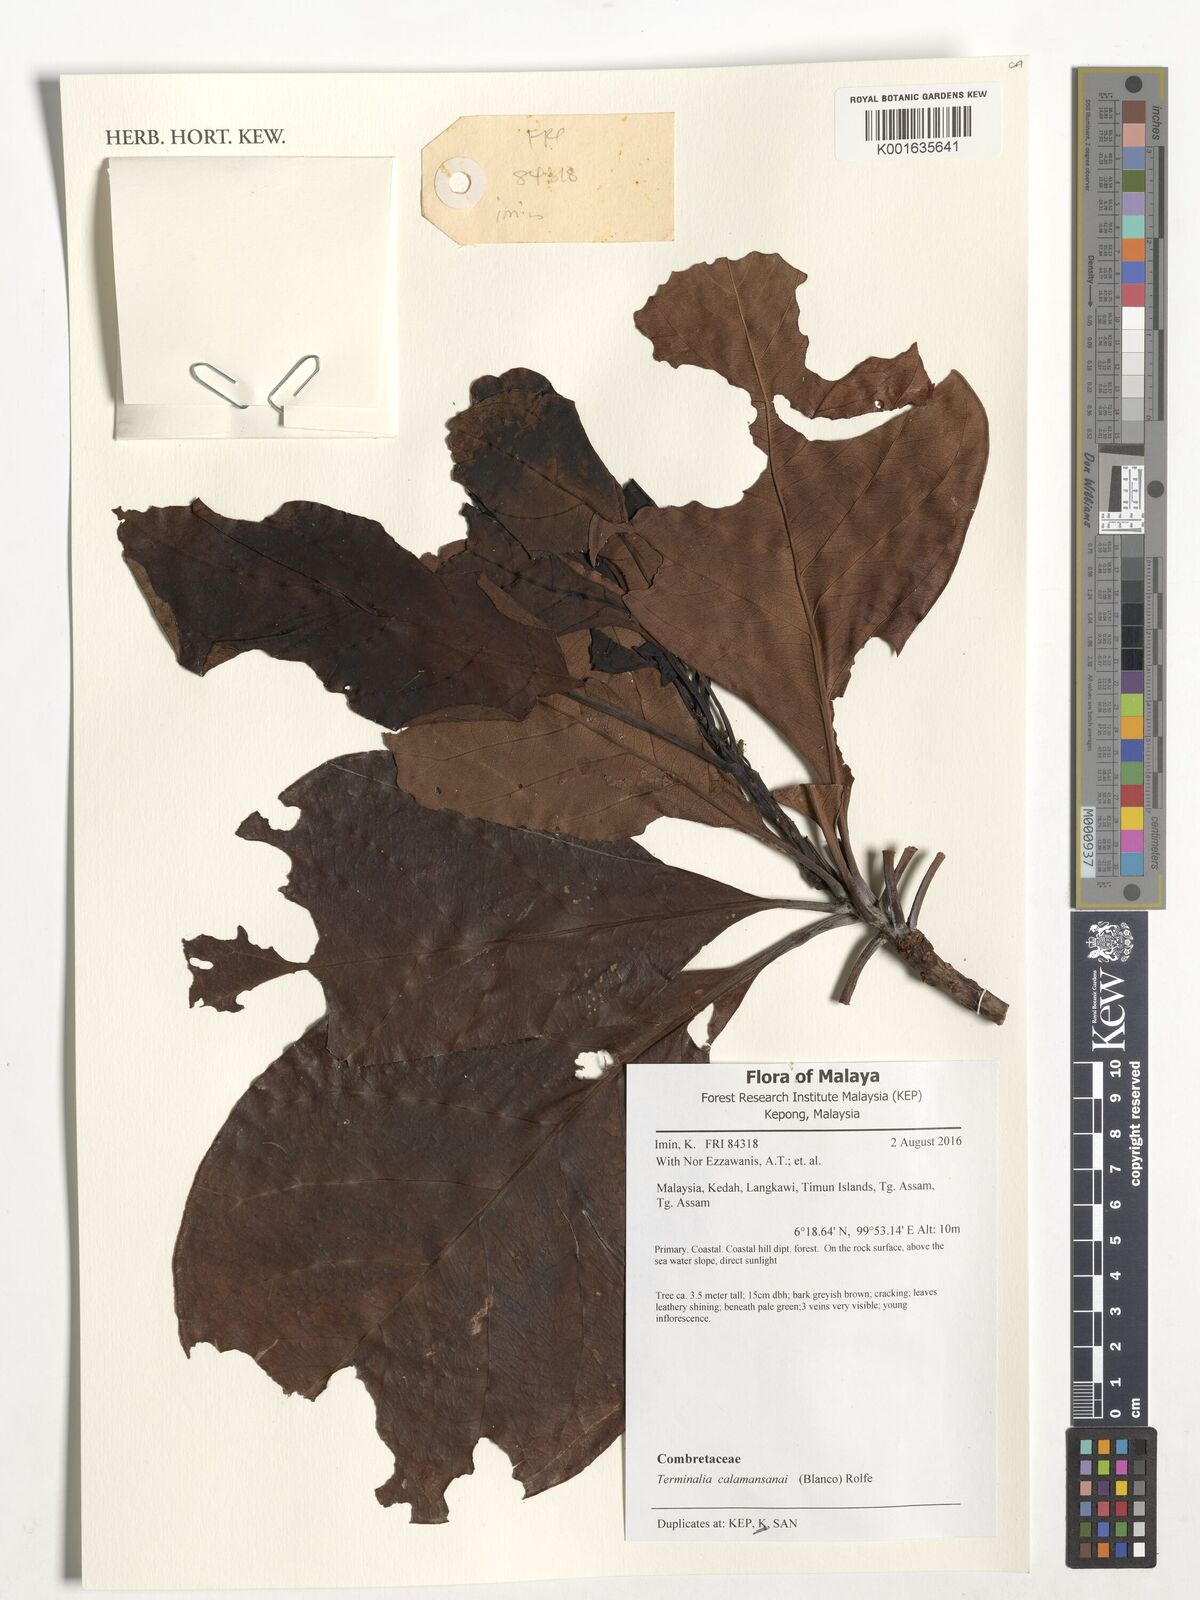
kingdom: Plantae
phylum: Tracheophyta
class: Magnoliopsida
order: Myrtales
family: Combretaceae
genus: Terminalia
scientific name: Terminalia calamansanai
